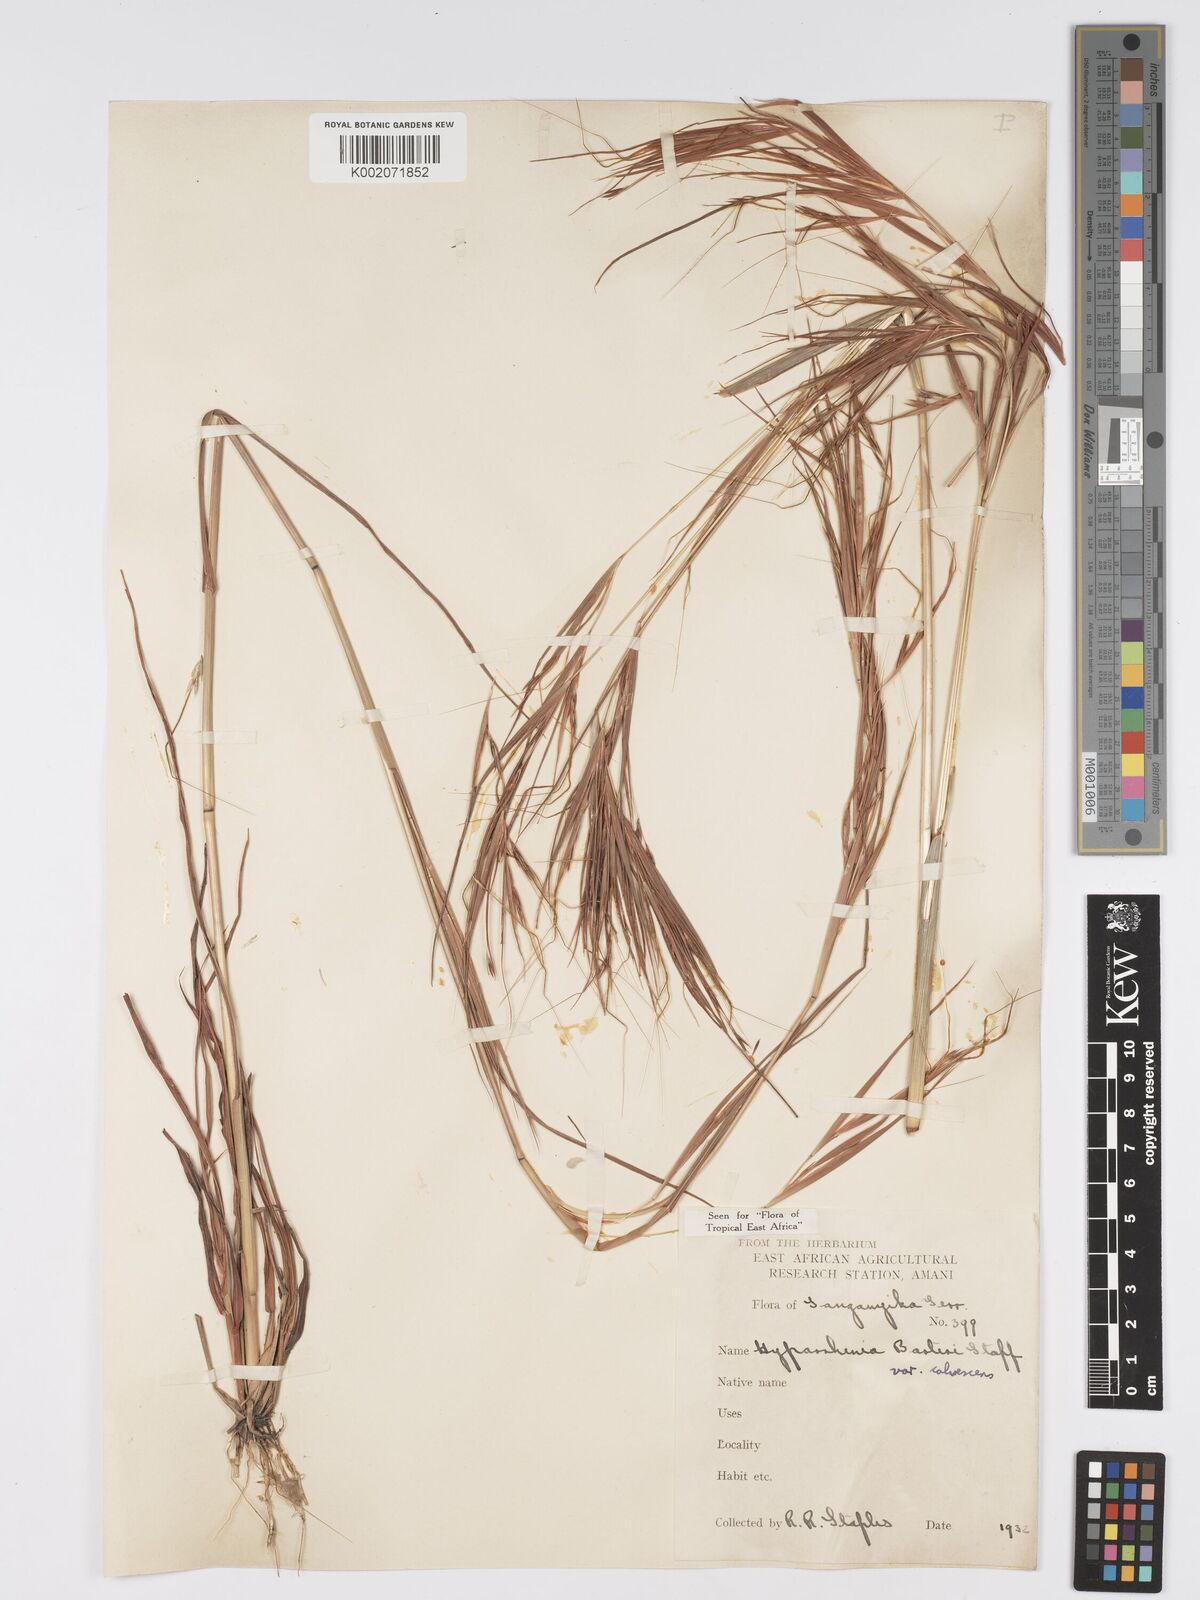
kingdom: Plantae
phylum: Tracheophyta
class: Liliopsida
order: Poales
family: Poaceae
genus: Hyparrhenia
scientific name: Hyparrhenia figariana
